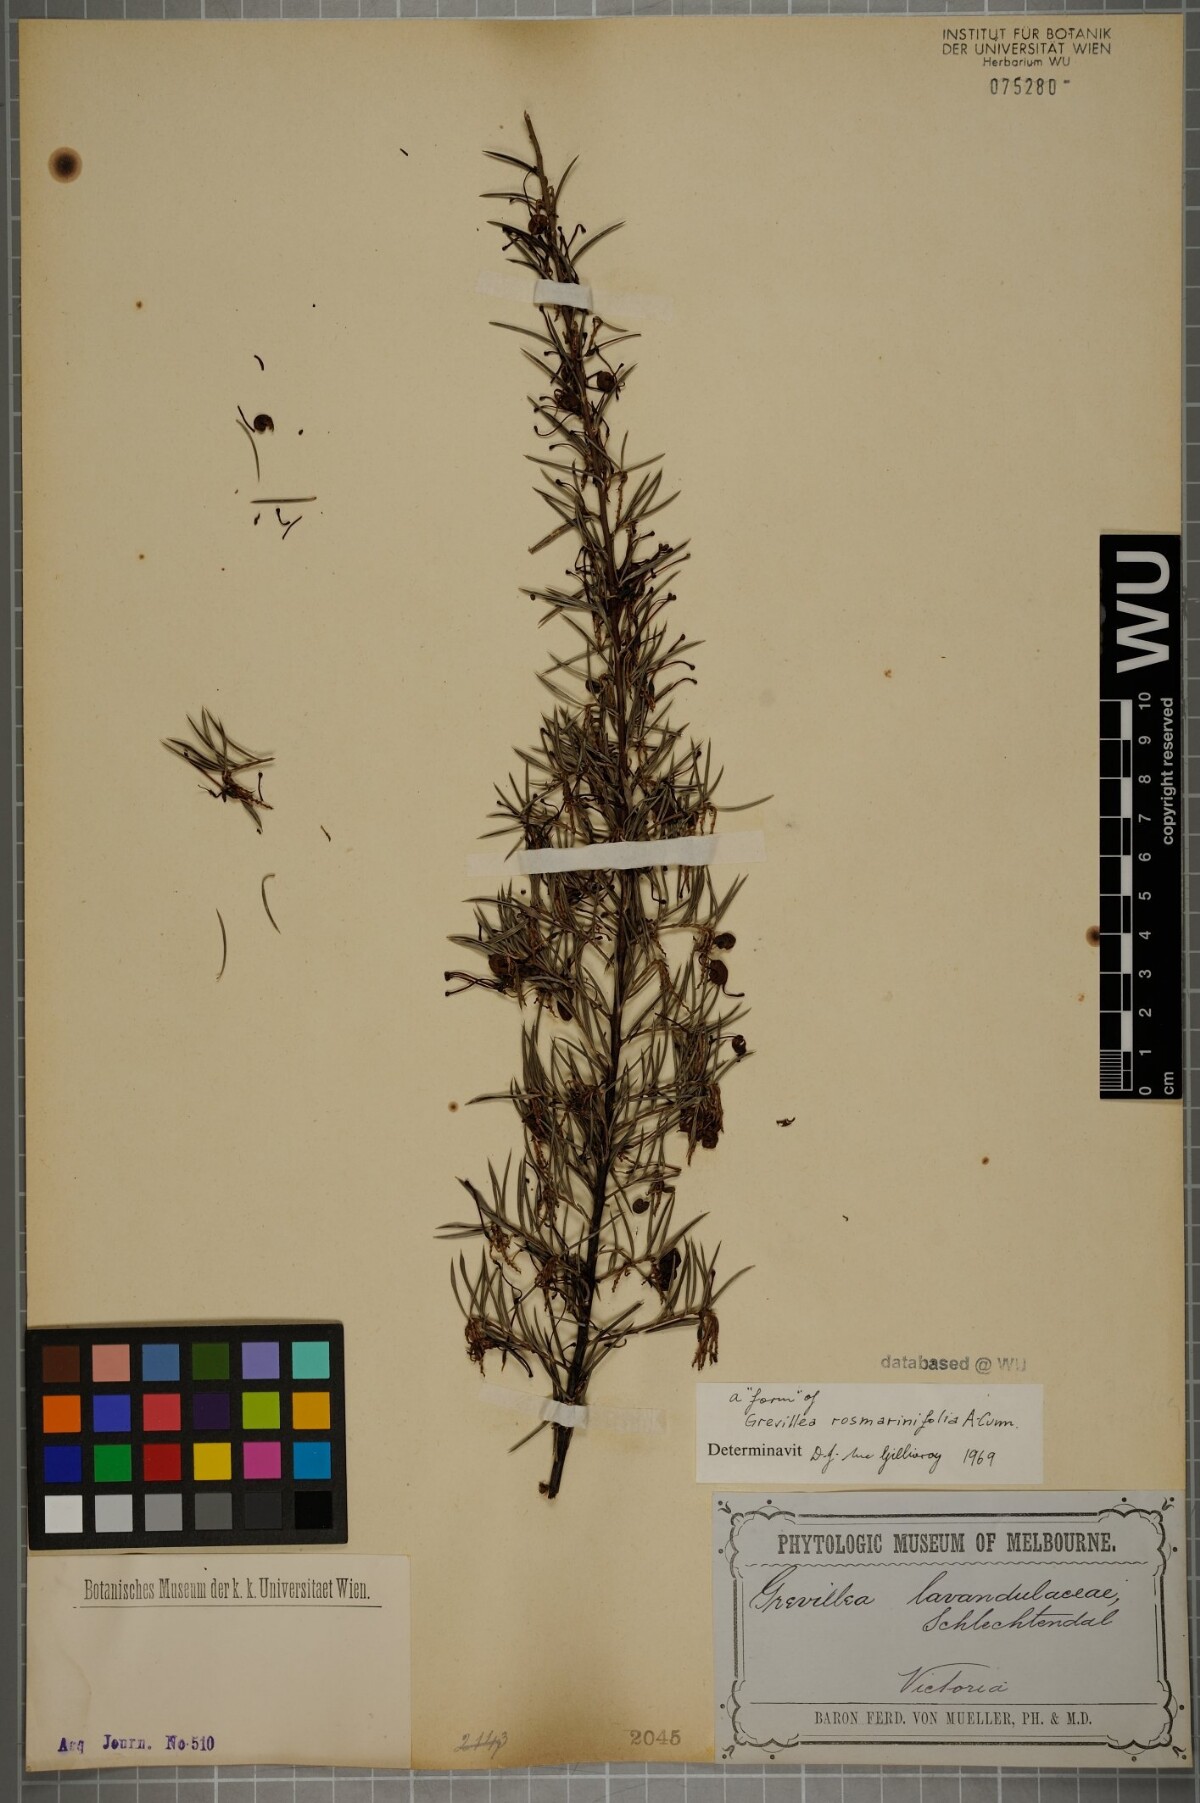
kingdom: Plantae
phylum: Tracheophyta
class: Magnoliopsida
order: Proteales
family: Proteaceae
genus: Grevillea
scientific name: Grevillea rosmarinifolia
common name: Rosemary grevillea
